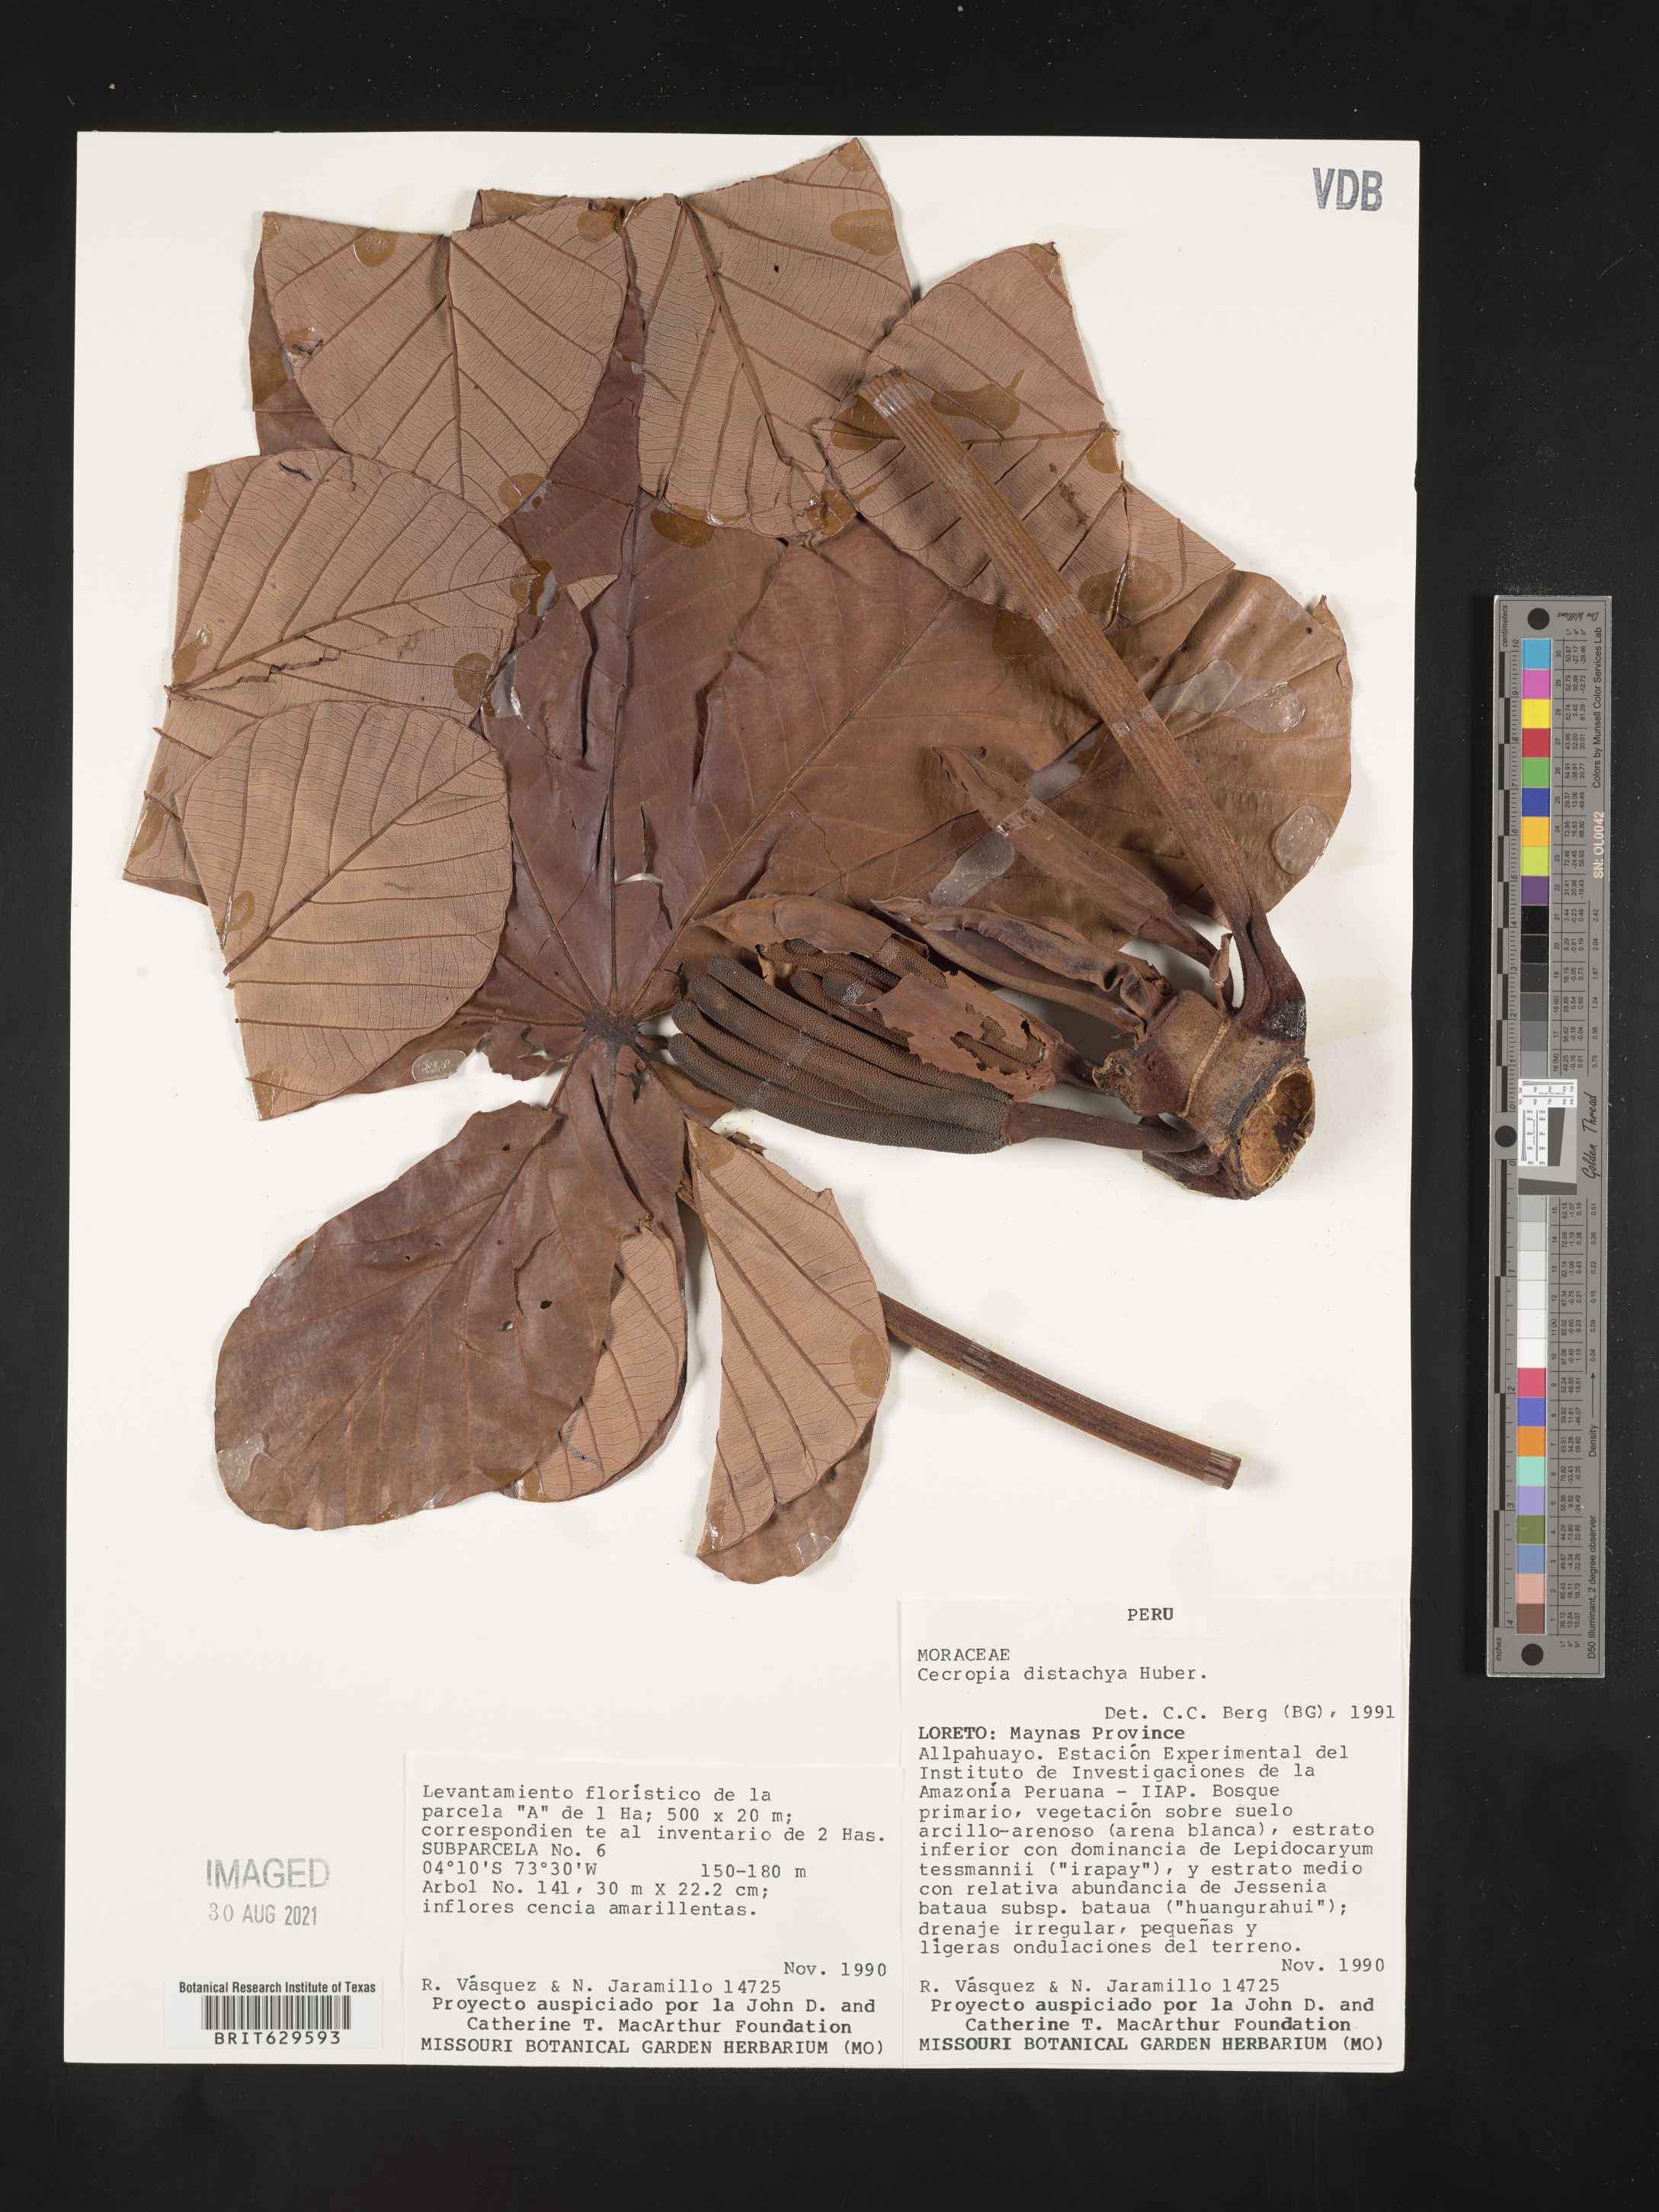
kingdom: Plantae
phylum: Tracheophyta
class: Magnoliopsida
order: Rosales
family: Urticaceae
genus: Cecropia
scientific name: Cecropia
